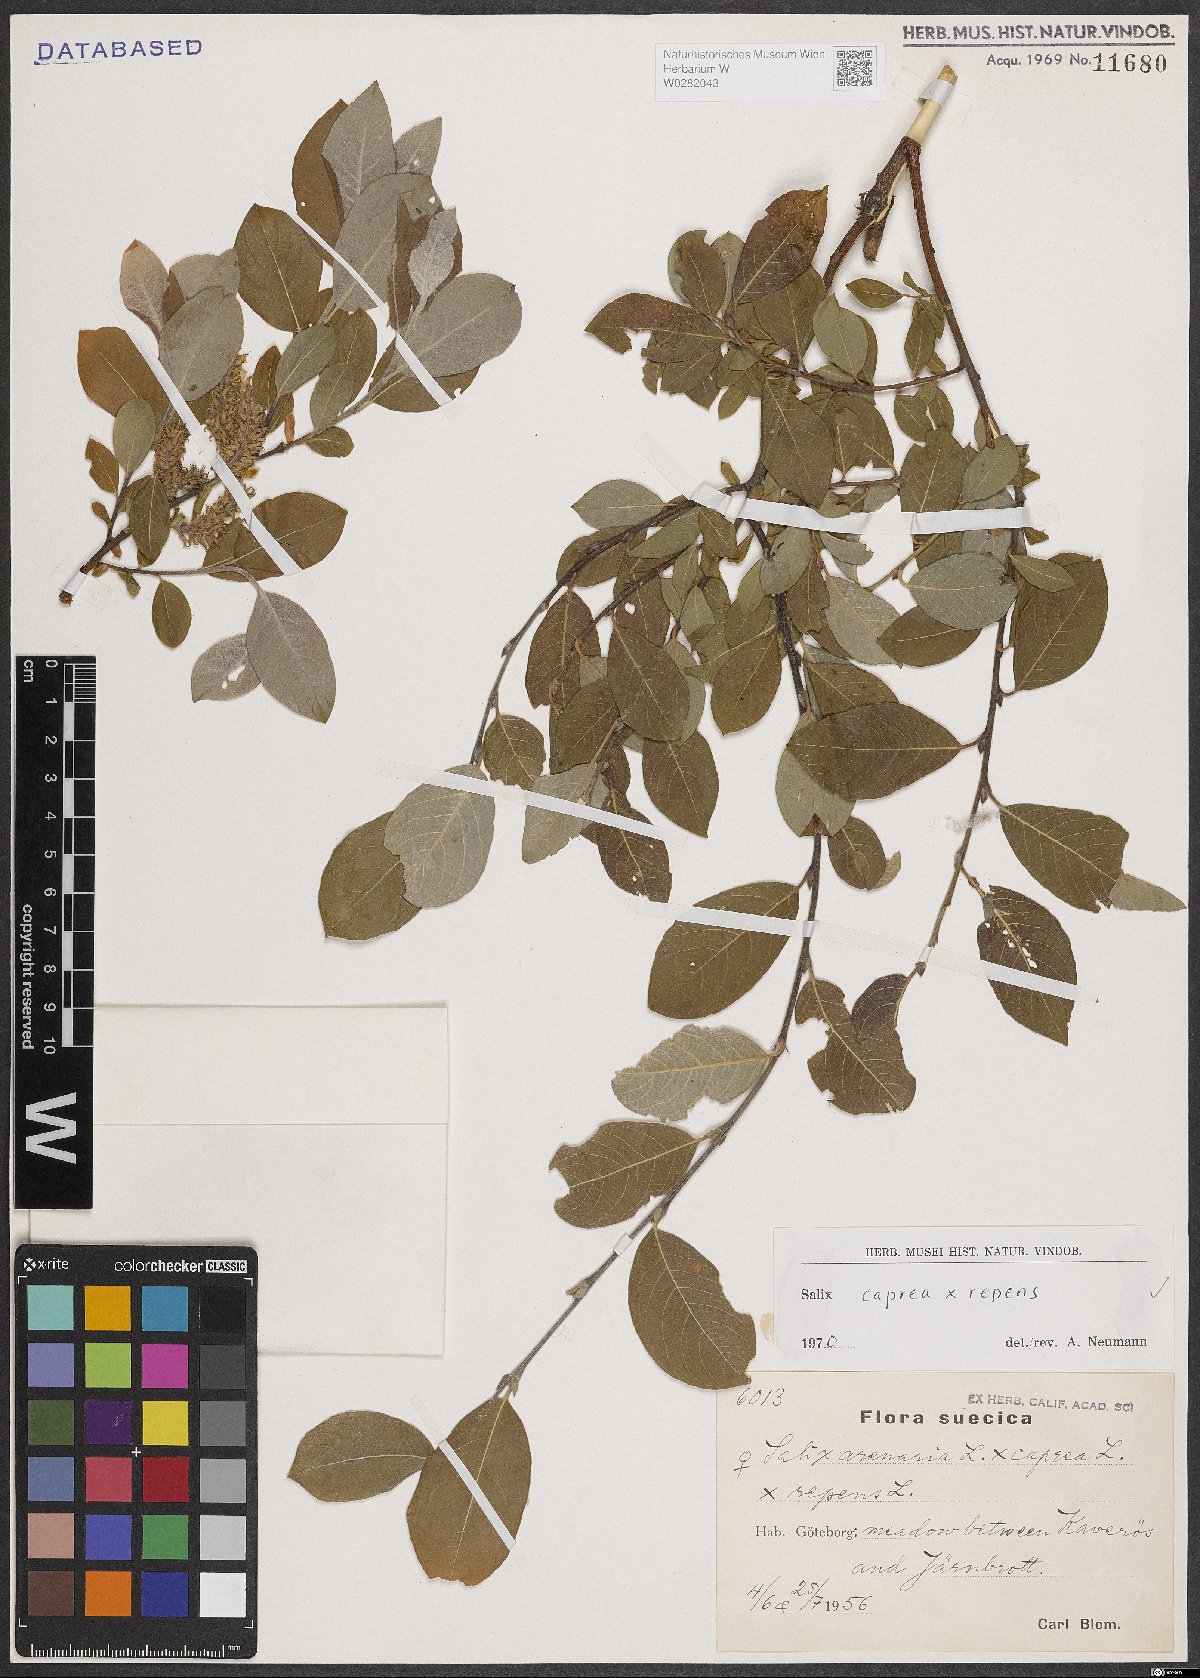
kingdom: Plantae
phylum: Tracheophyta
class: Magnoliopsida
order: Malpighiales
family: Salicaceae
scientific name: Salicaceae
